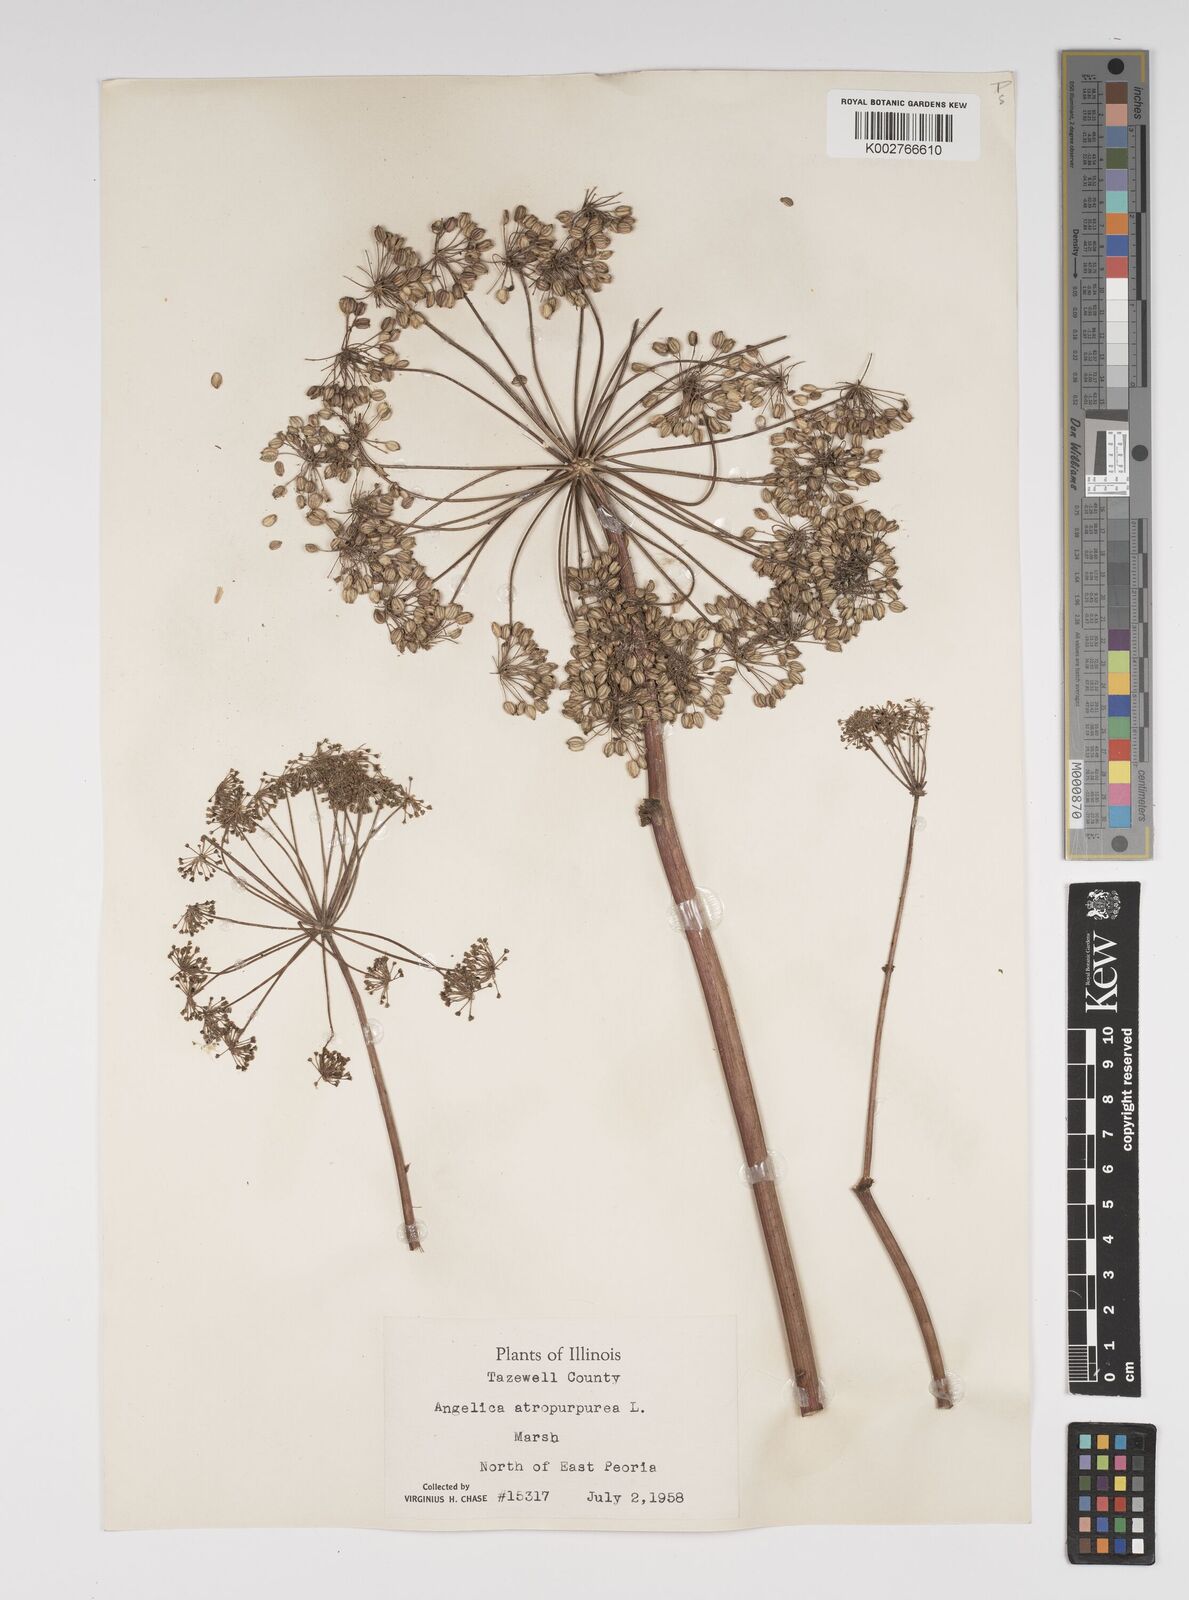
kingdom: Plantae
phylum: Tracheophyta
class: Magnoliopsida
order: Apiales
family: Apiaceae
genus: Angelica
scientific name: Angelica atropurpurea
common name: Great angelica
